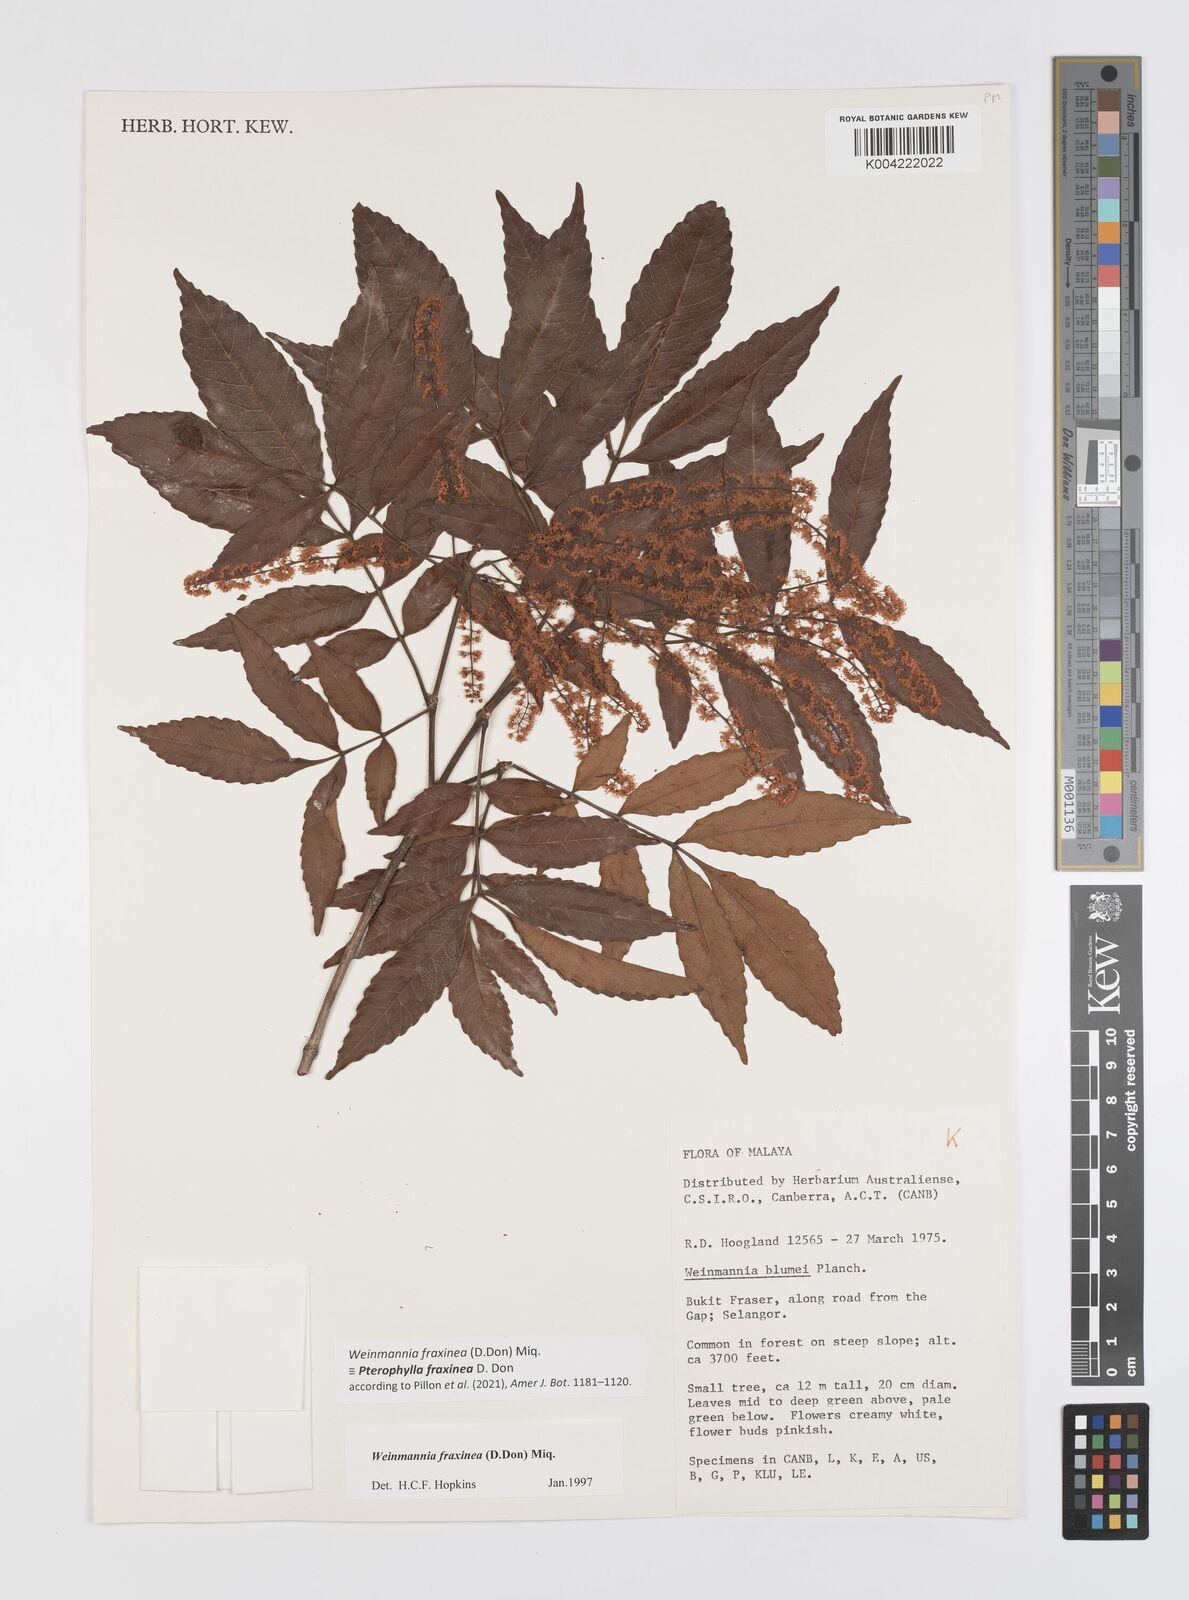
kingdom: Plantae
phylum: Tracheophyta
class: Magnoliopsida
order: Oxalidales
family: Cunoniaceae
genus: Pterophylla
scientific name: Pterophylla fraxinea
